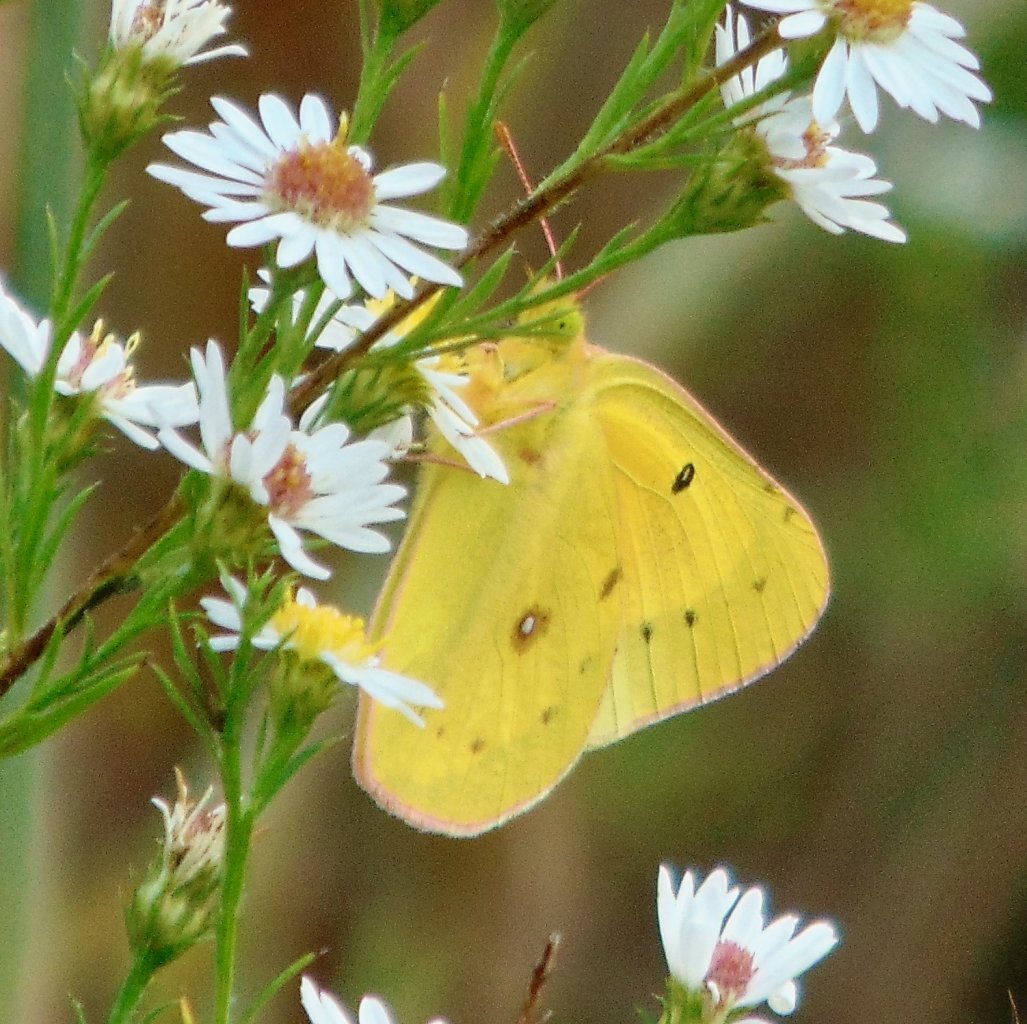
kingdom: Animalia
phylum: Arthropoda
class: Insecta
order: Lepidoptera
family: Pieridae
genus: Colias
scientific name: Colias eurytheme
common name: Orange Sulphur
